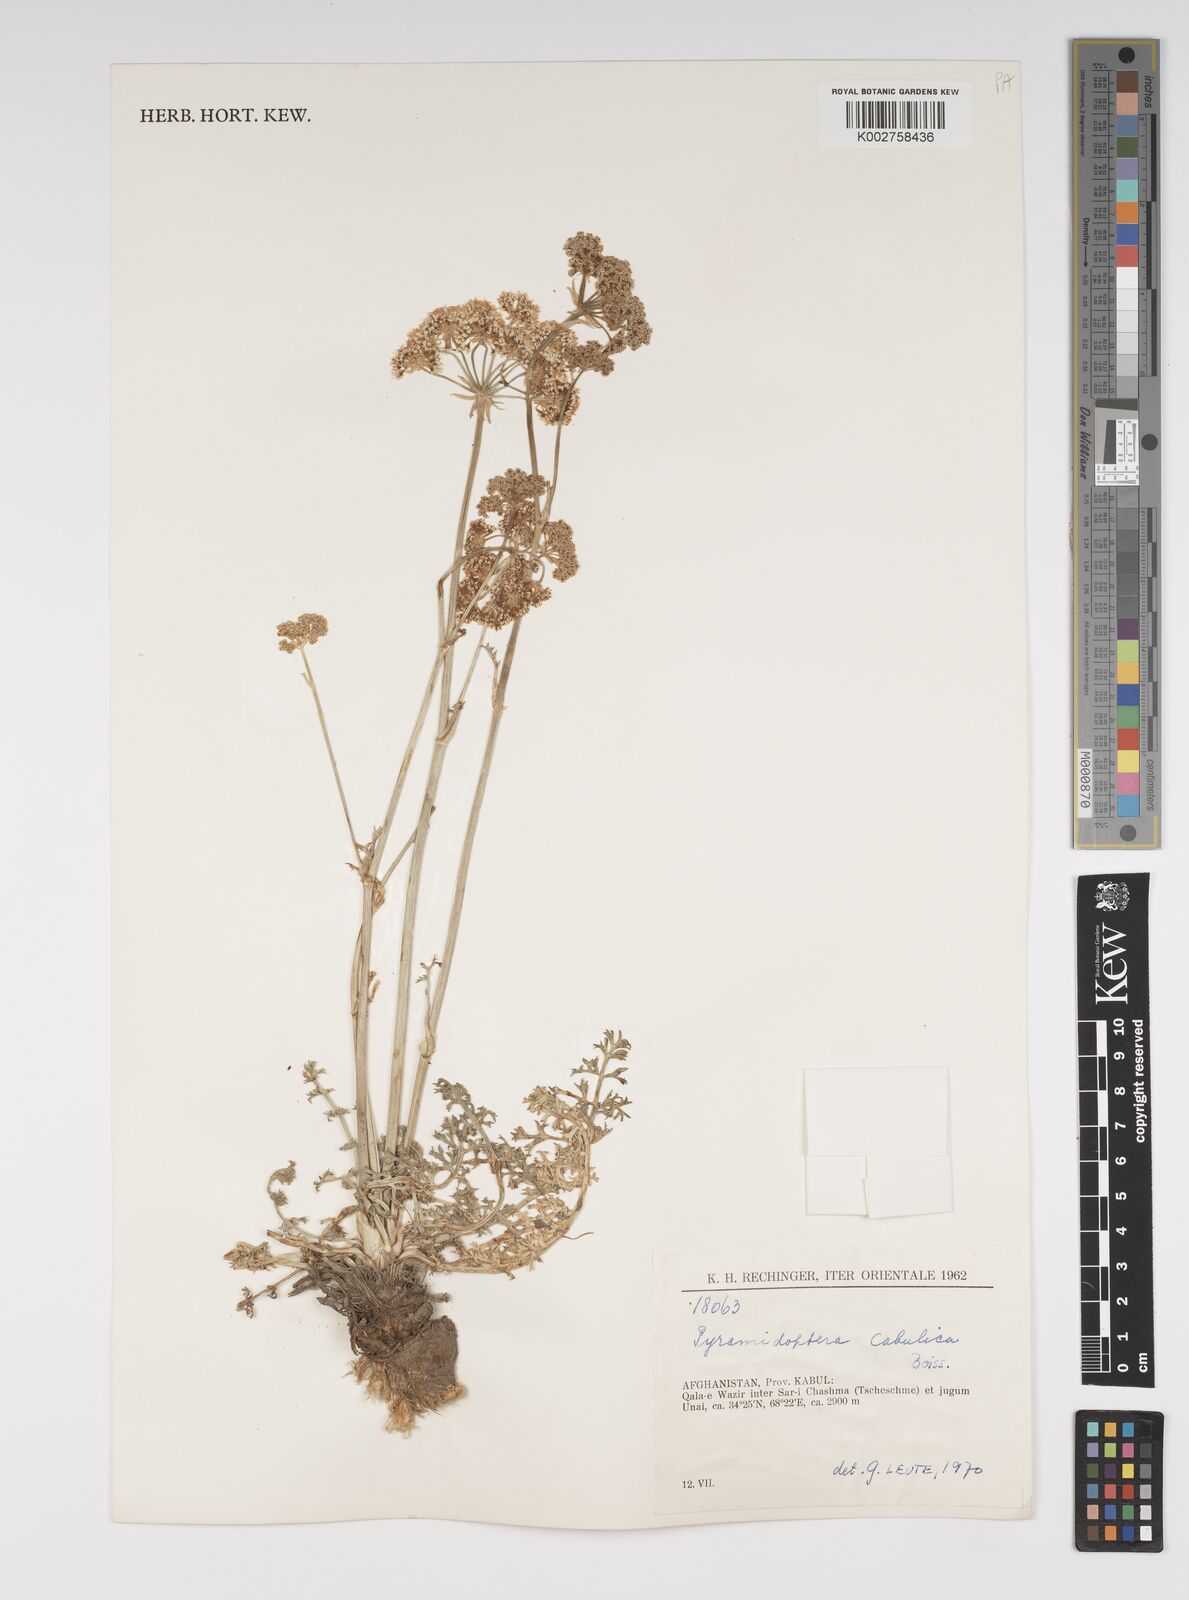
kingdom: Plantae
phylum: Tracheophyta
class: Magnoliopsida
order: Apiales
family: Apiaceae
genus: Pyramidoptera
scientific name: Pyramidoptera cabulica
